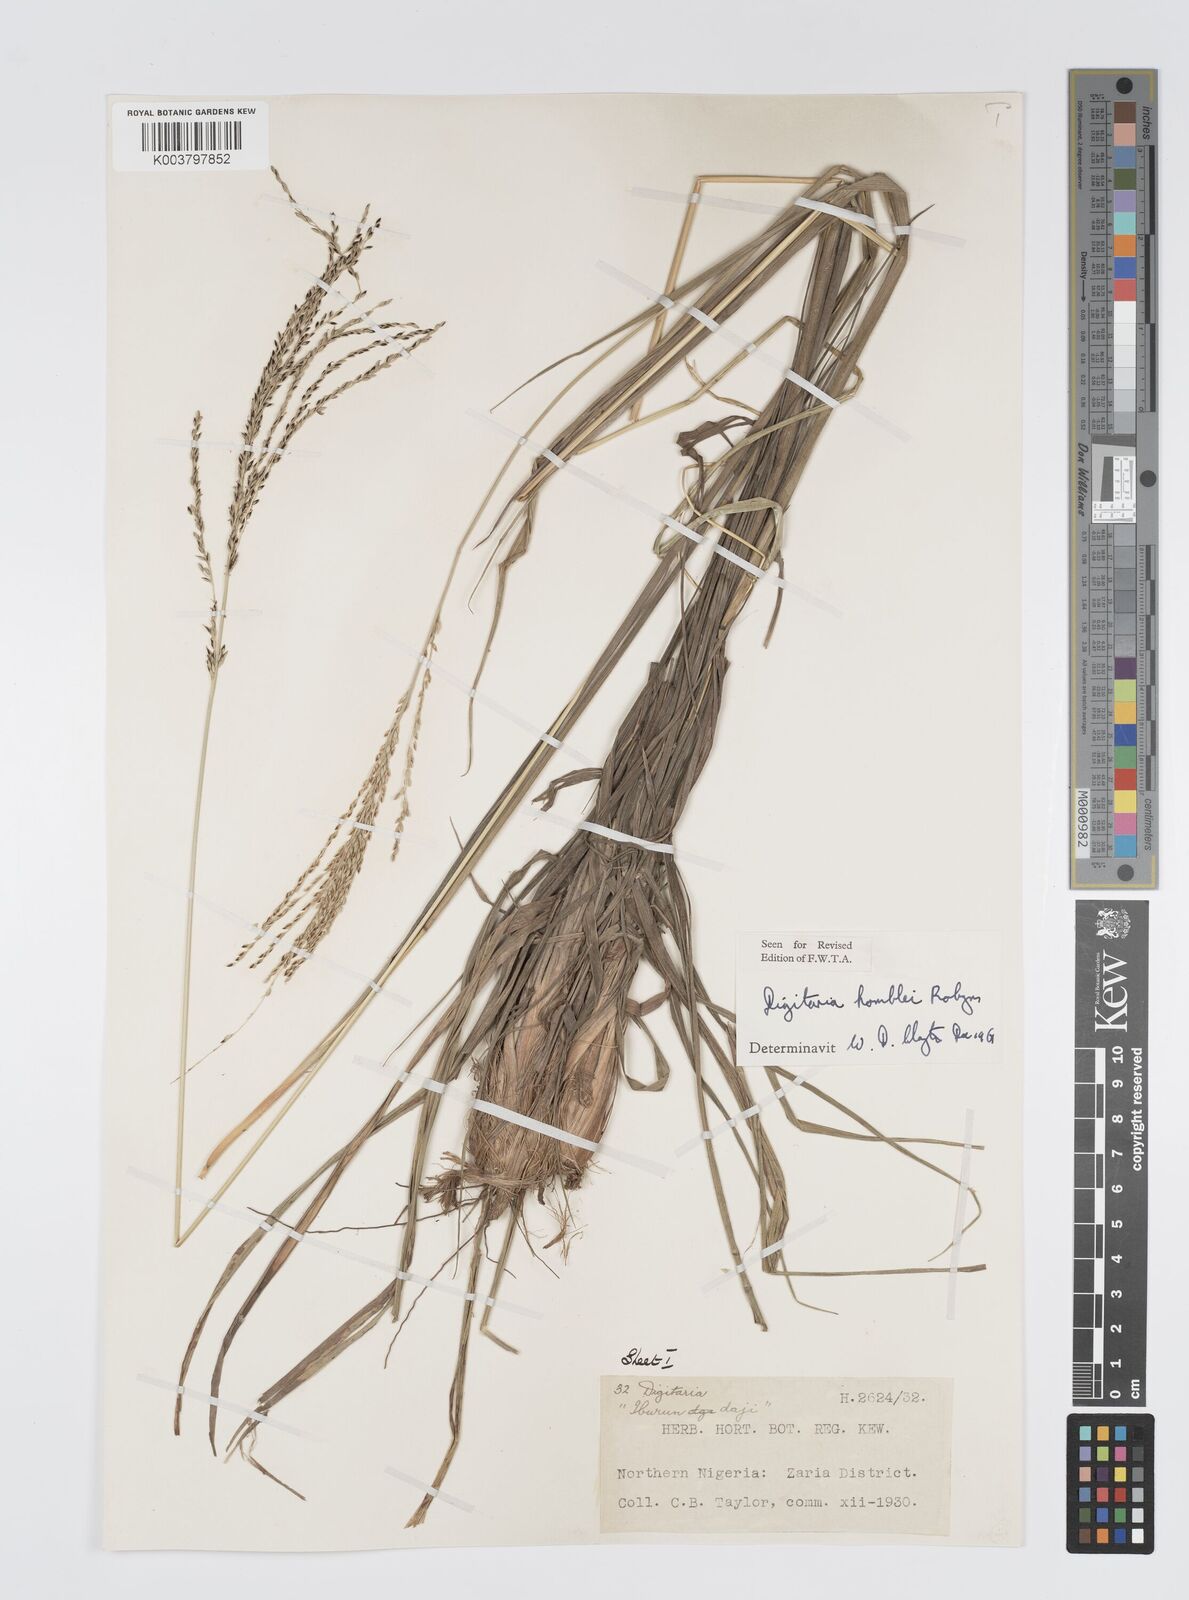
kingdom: Plantae
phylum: Tracheophyta
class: Liliopsida
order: Poales
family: Poaceae
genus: Digitaria
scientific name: Digitaria compressa
